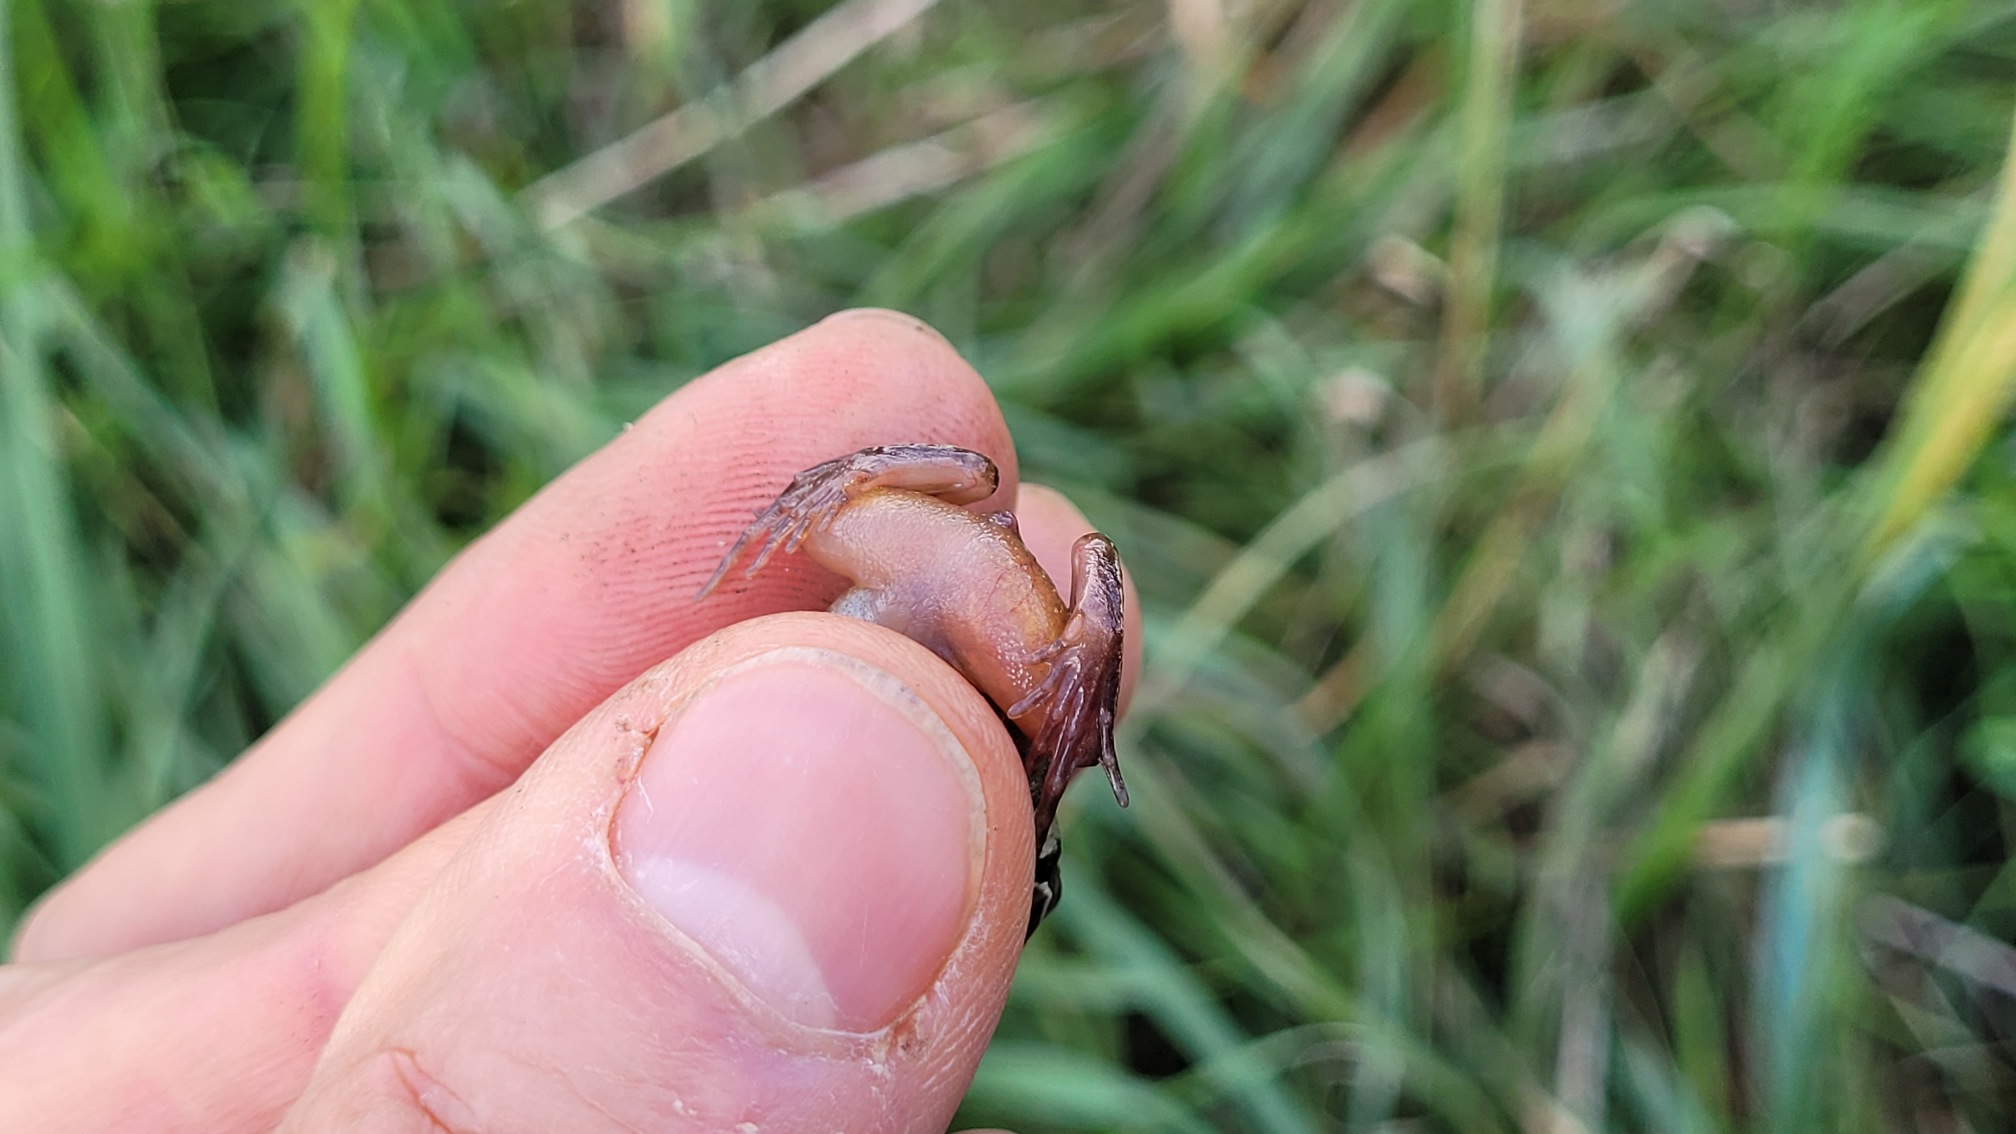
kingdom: Animalia
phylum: Chordata
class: Amphibia
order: Anura
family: Ranidae
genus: Rana
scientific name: Rana arvalis
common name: Spidssnudet frø
